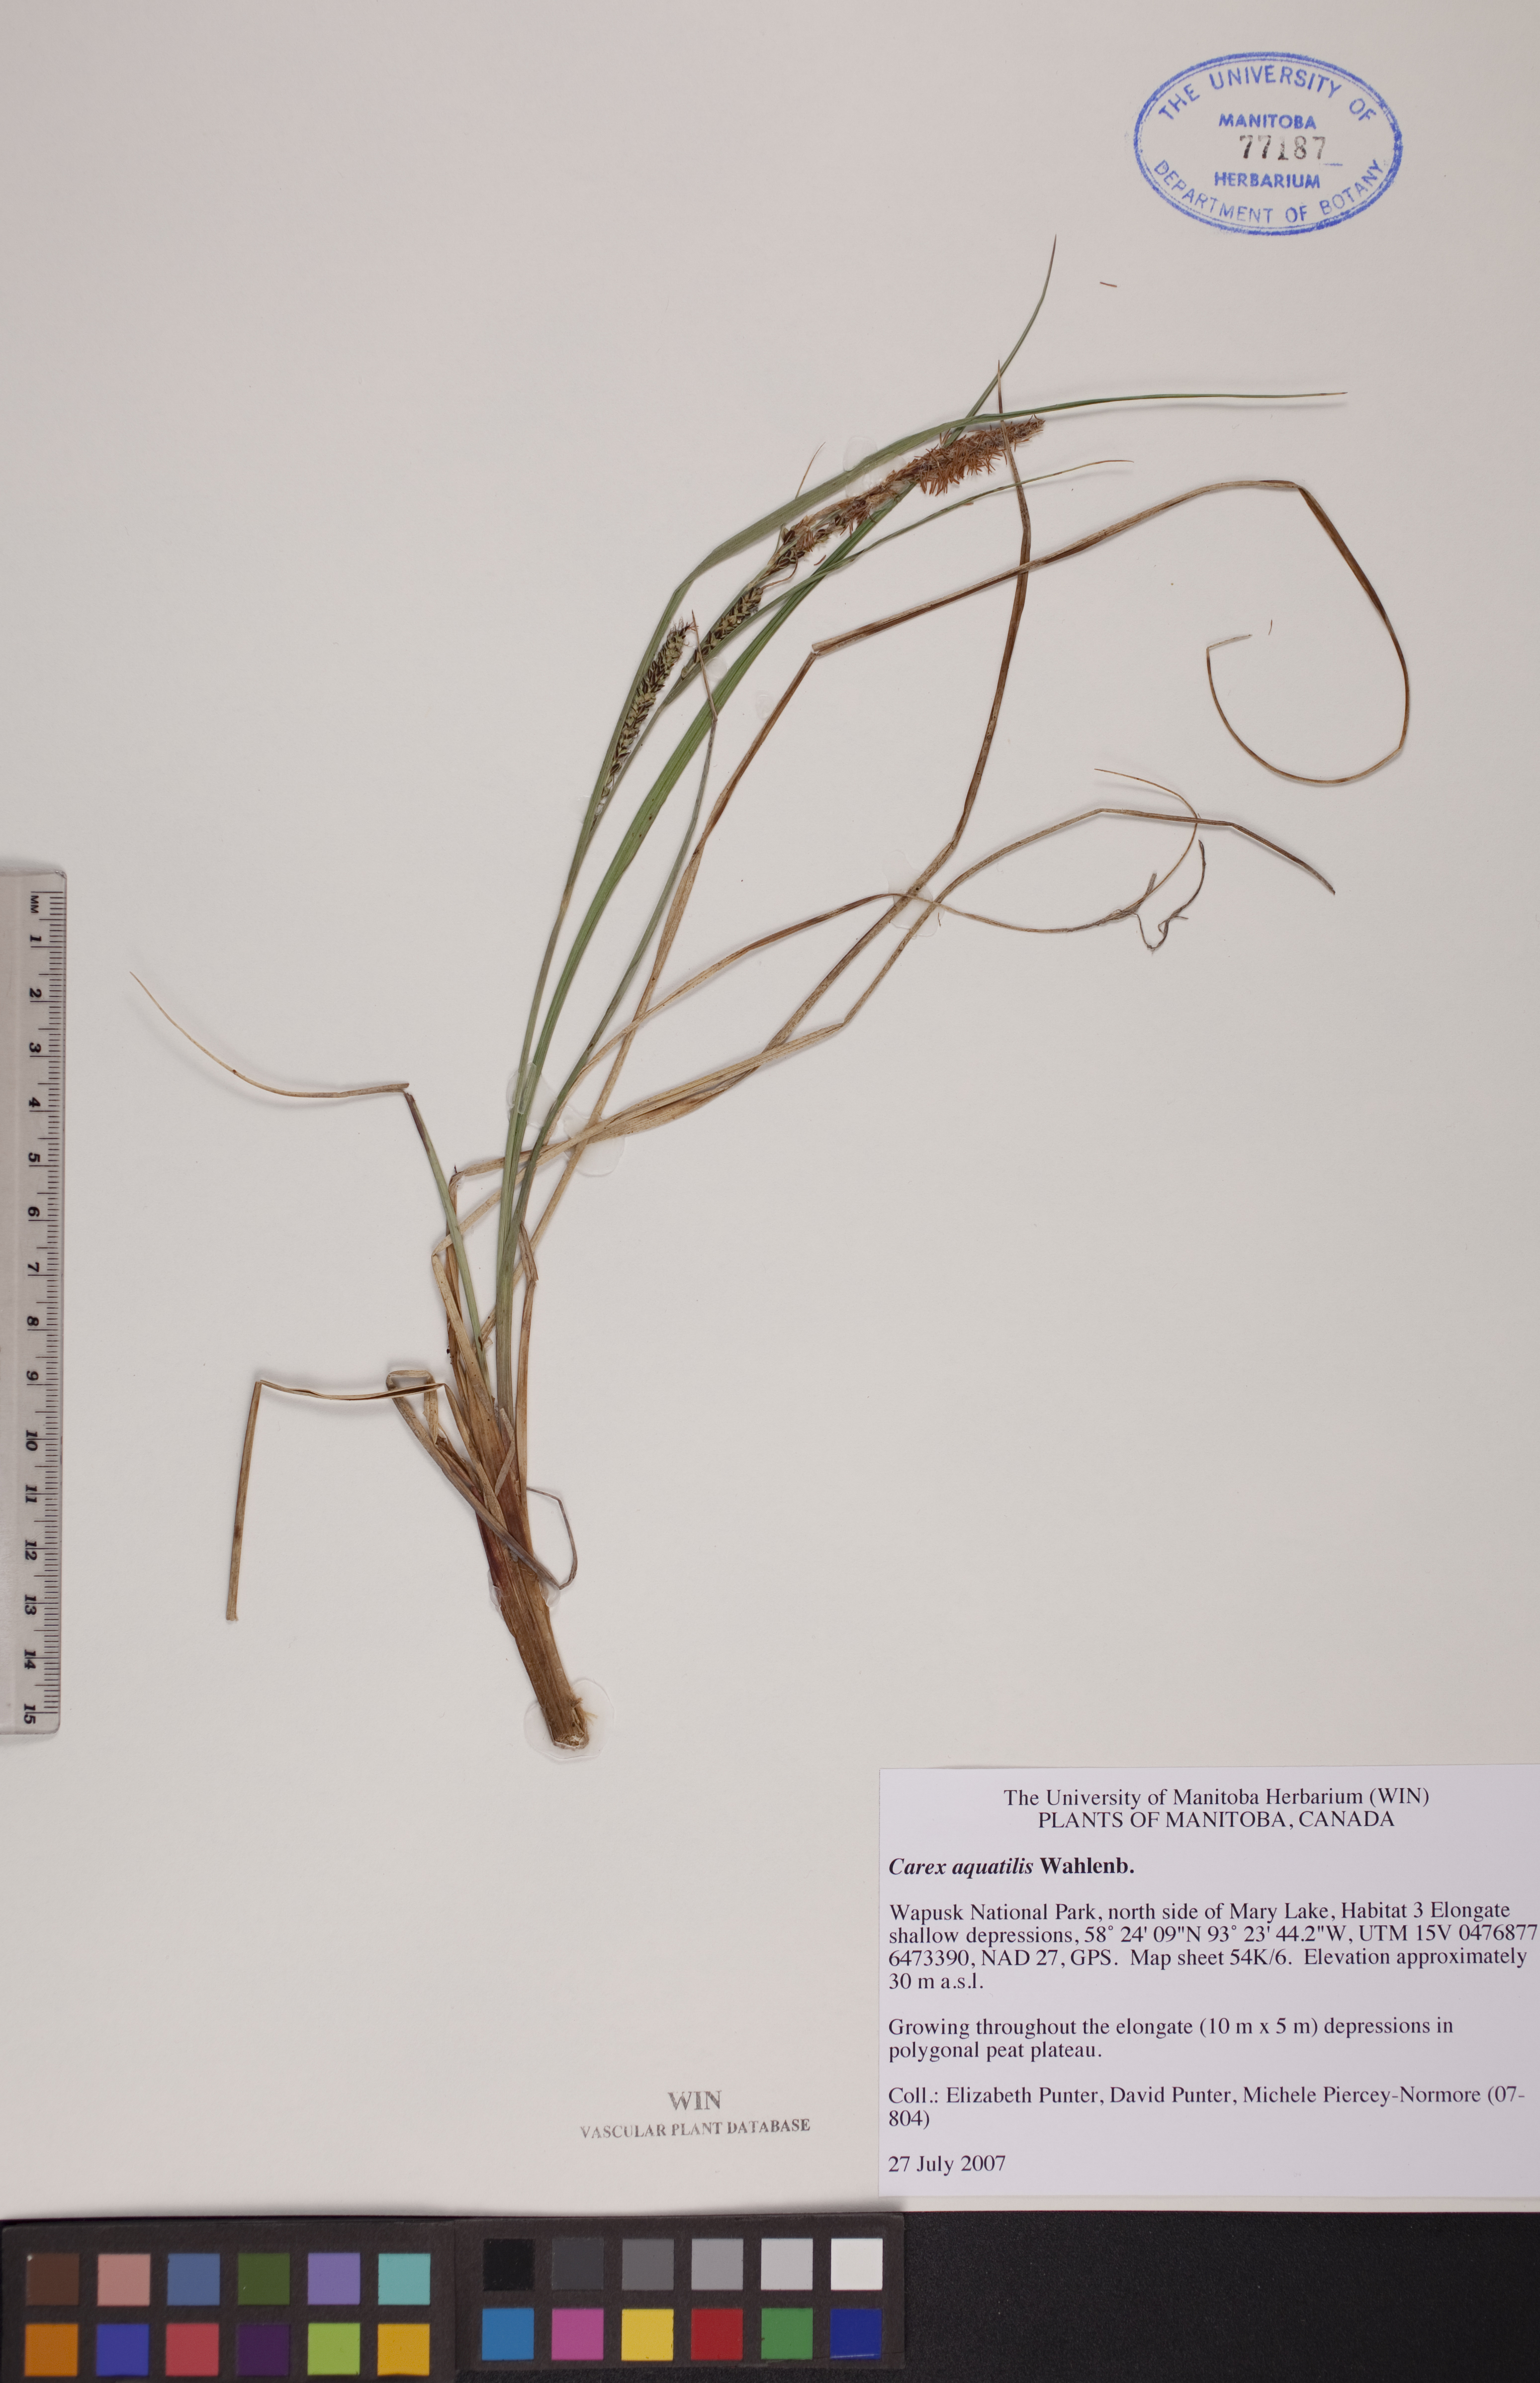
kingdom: Plantae
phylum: Tracheophyta
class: Liliopsida
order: Poales
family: Cyperaceae
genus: Carex
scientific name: Carex aquatilis
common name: Water sedge
